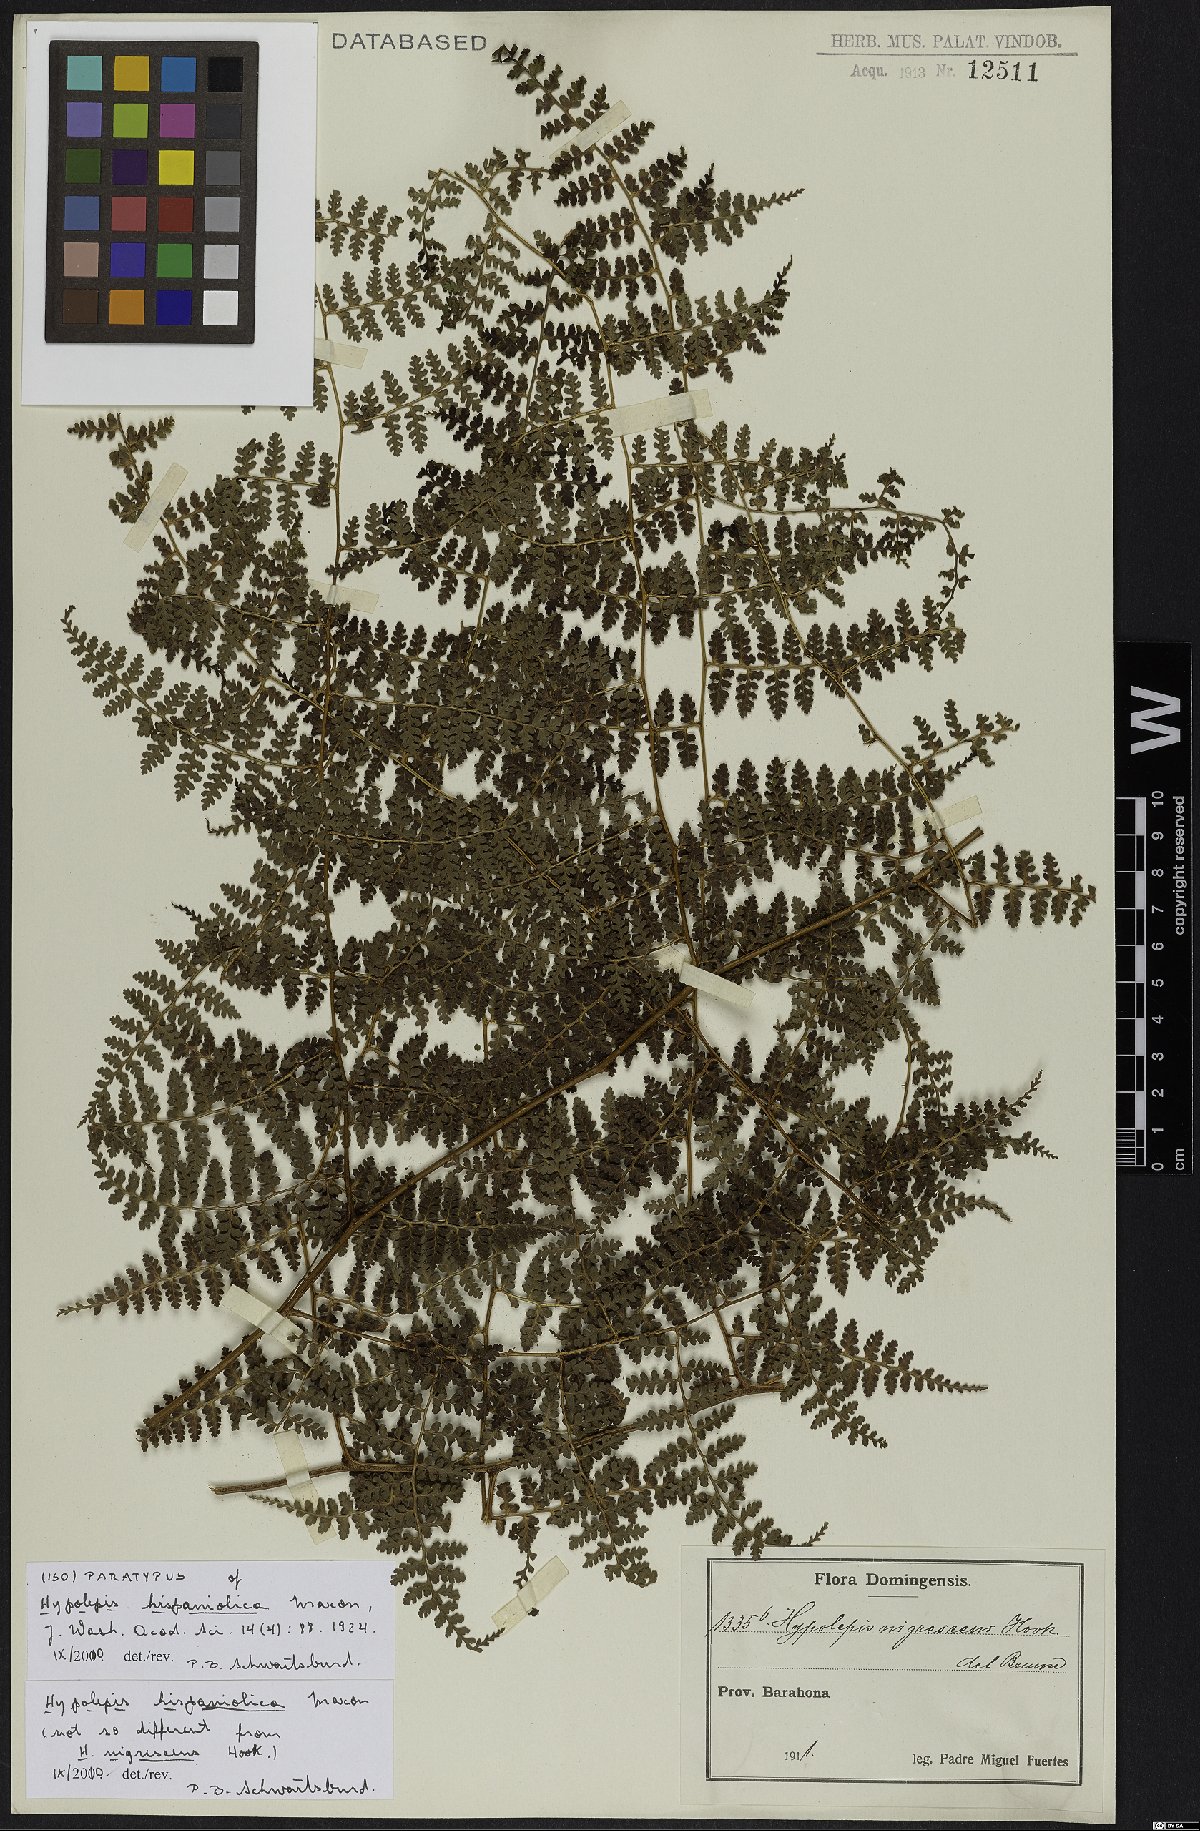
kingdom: Plantae
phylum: Tracheophyta
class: Polypodiopsida
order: Polypodiales
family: Dennstaedtiaceae
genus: Hiya
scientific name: Hiya nigrescens
